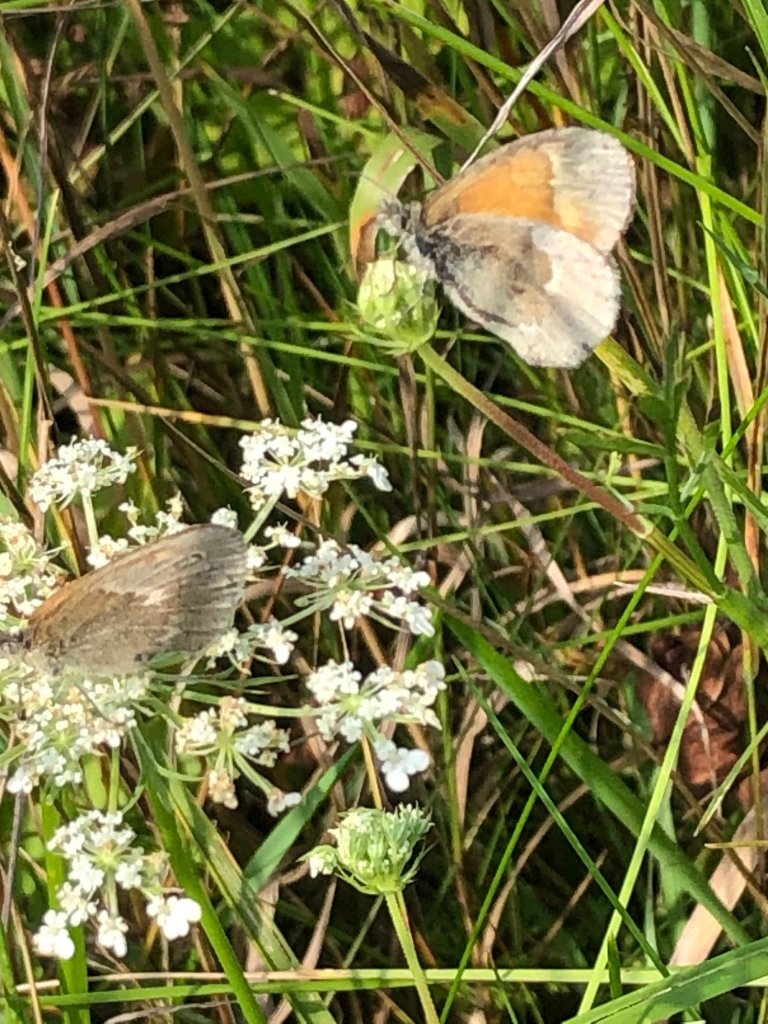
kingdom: Animalia
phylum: Arthropoda
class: Insecta
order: Lepidoptera
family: Nymphalidae
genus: Coenonympha
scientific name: Coenonympha tullia
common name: Large Heath
